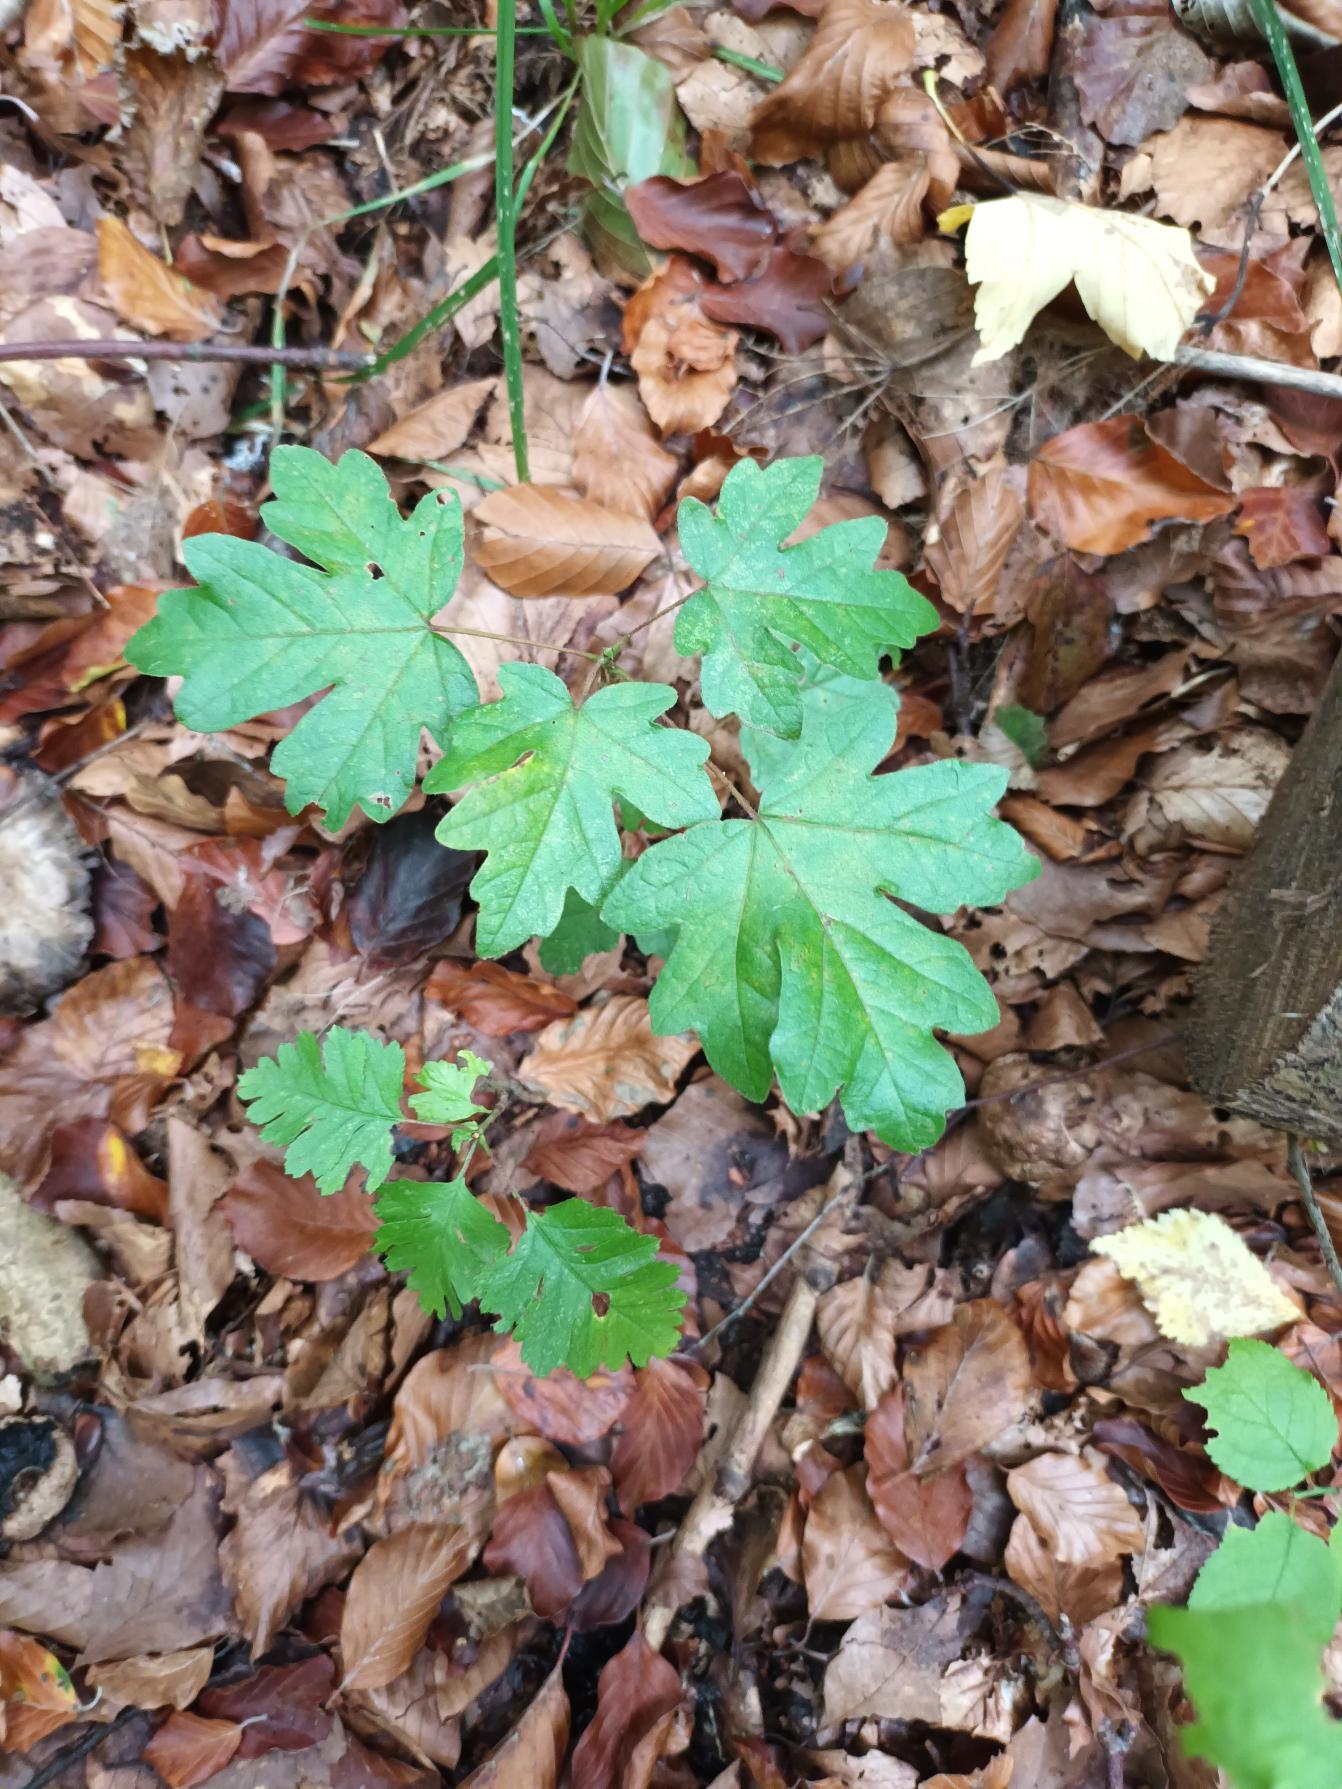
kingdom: Plantae
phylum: Tracheophyta
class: Magnoliopsida
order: Sapindales
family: Sapindaceae
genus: Acer
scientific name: Acer campestre
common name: Navr
